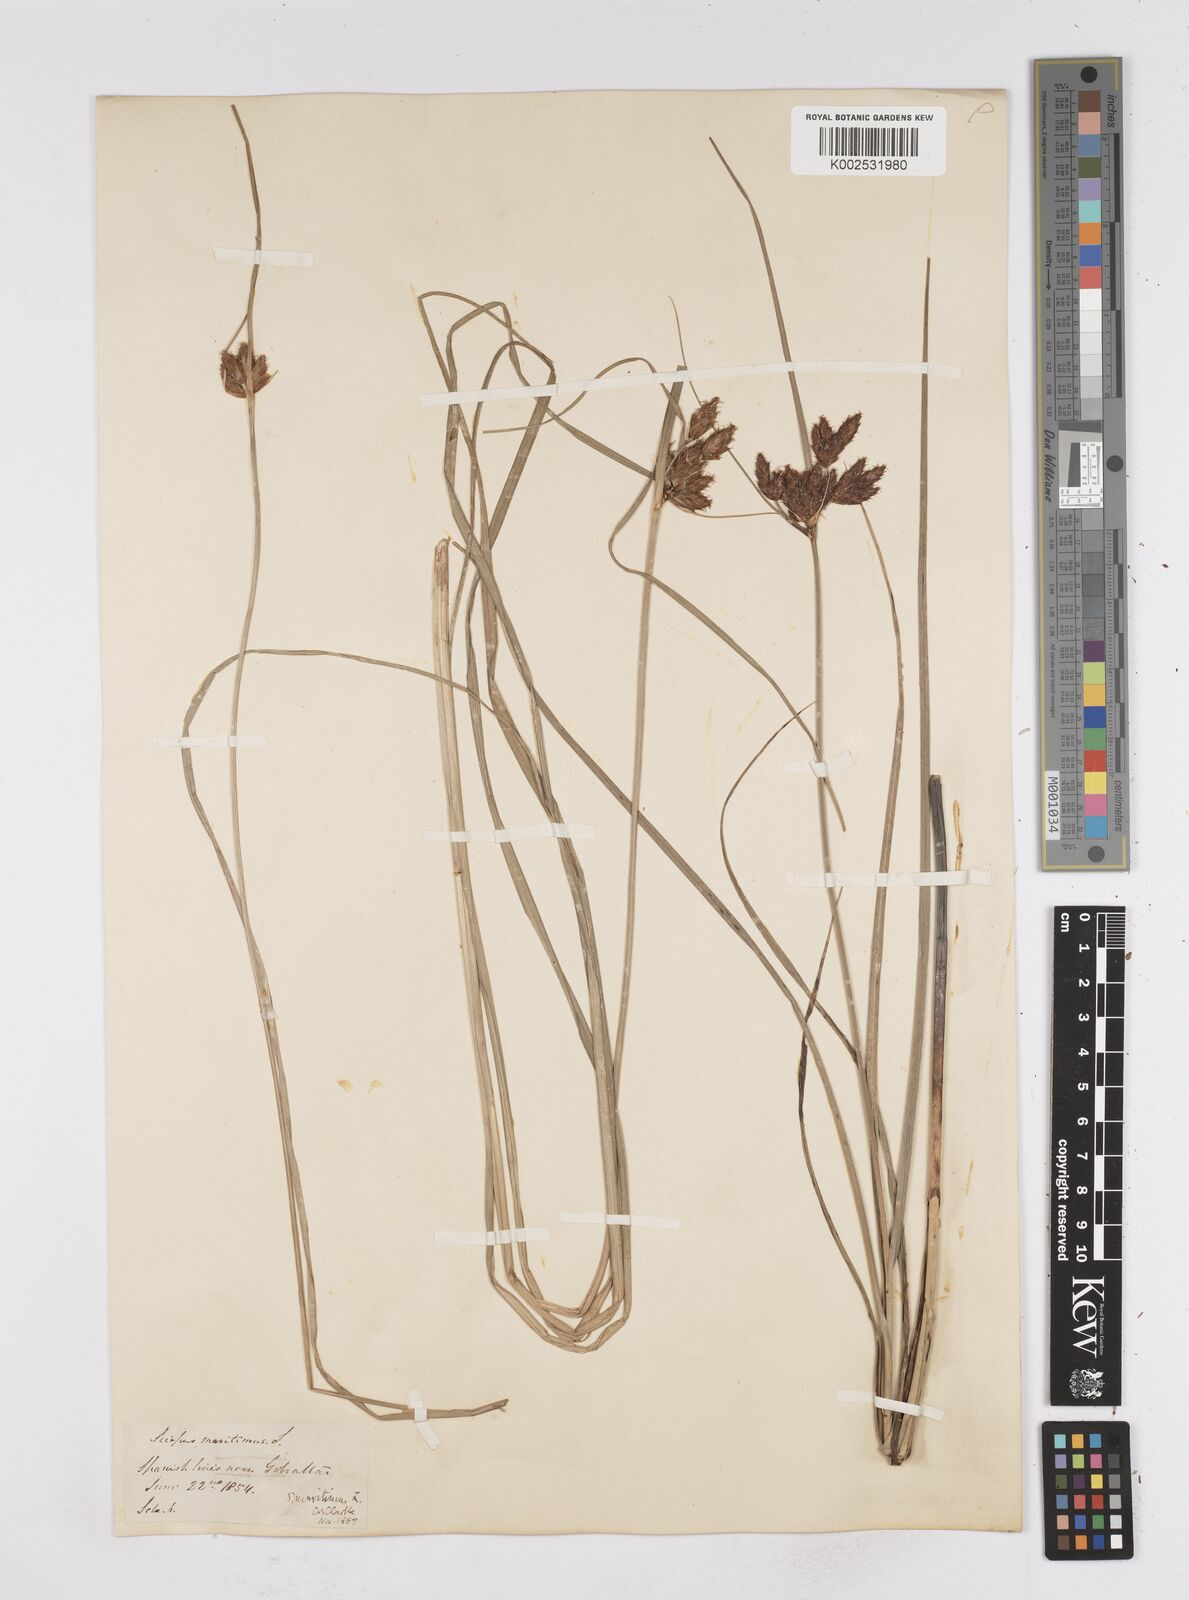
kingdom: Plantae
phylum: Tracheophyta
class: Liliopsida
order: Poales
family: Cyperaceae
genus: Bolboschoenus
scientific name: Bolboschoenus maritimus
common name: Sea club-rush
